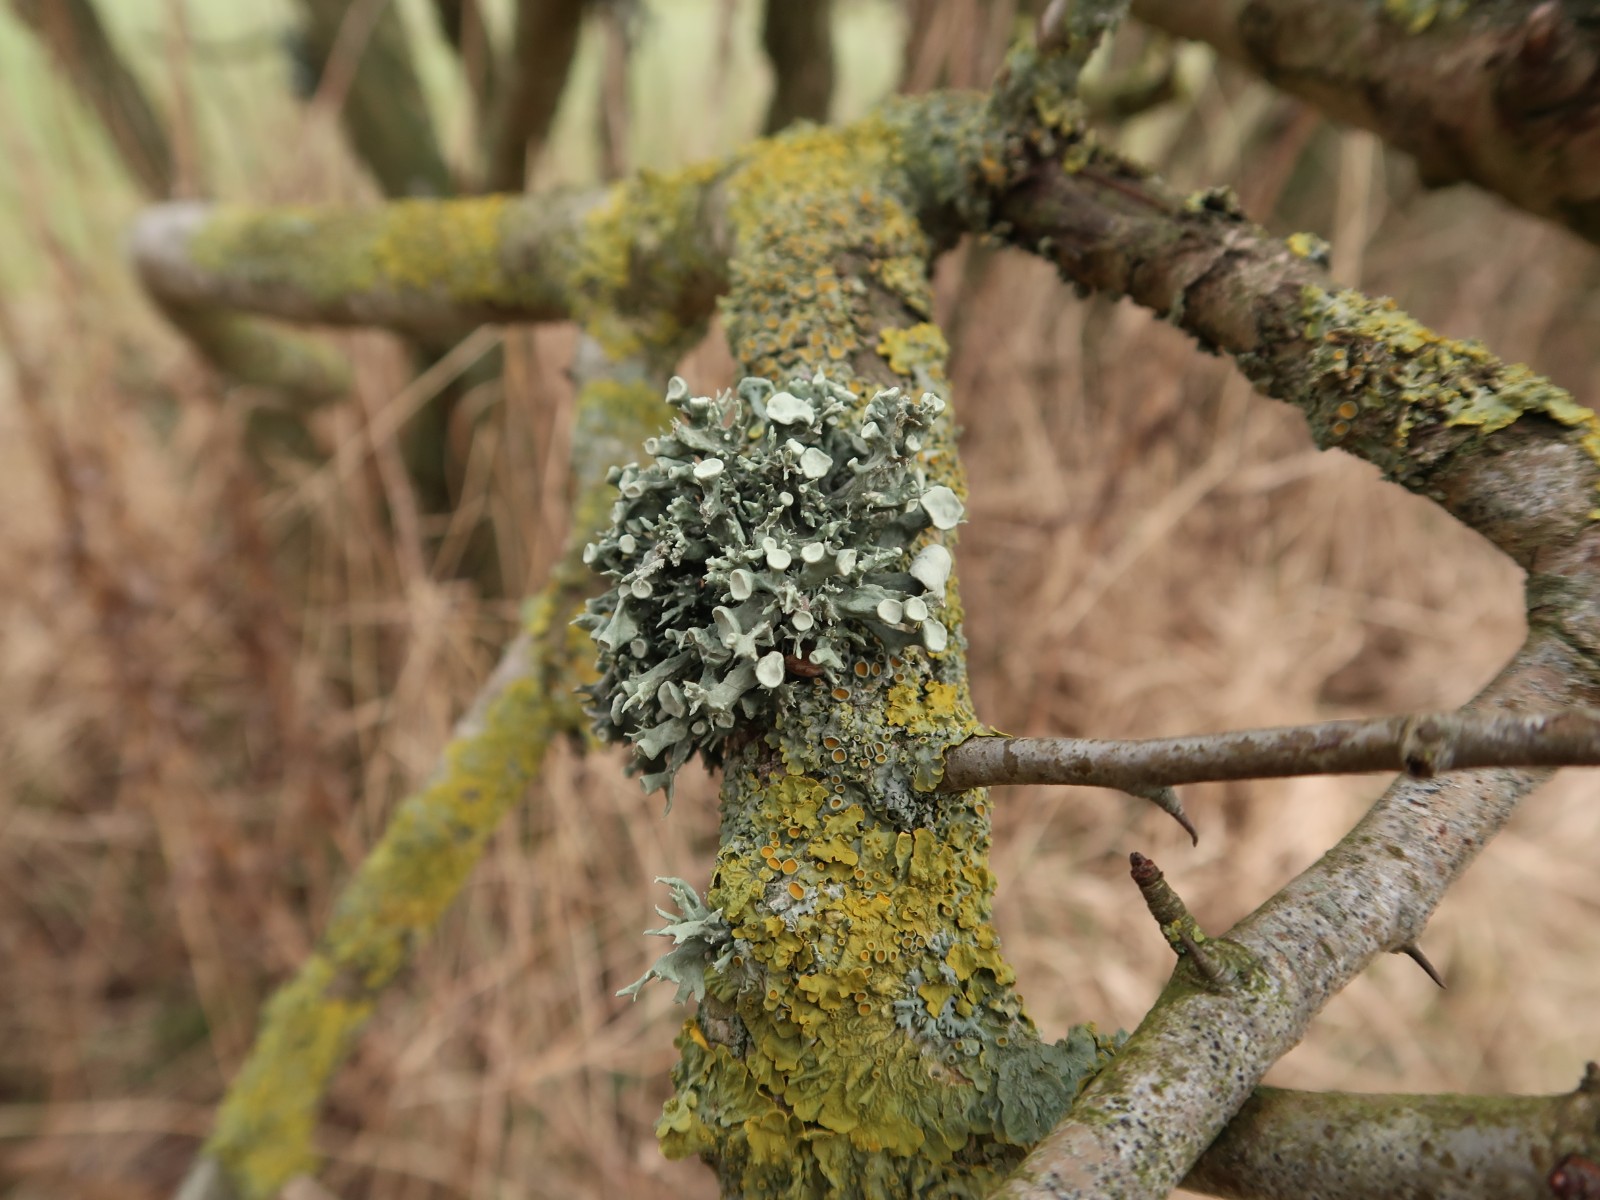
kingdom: Fungi
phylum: Ascomycota
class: Lecanoromycetes
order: Lecanorales
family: Ramalinaceae
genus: Ramalina
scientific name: Ramalina fastigiata
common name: tue-grenlav
